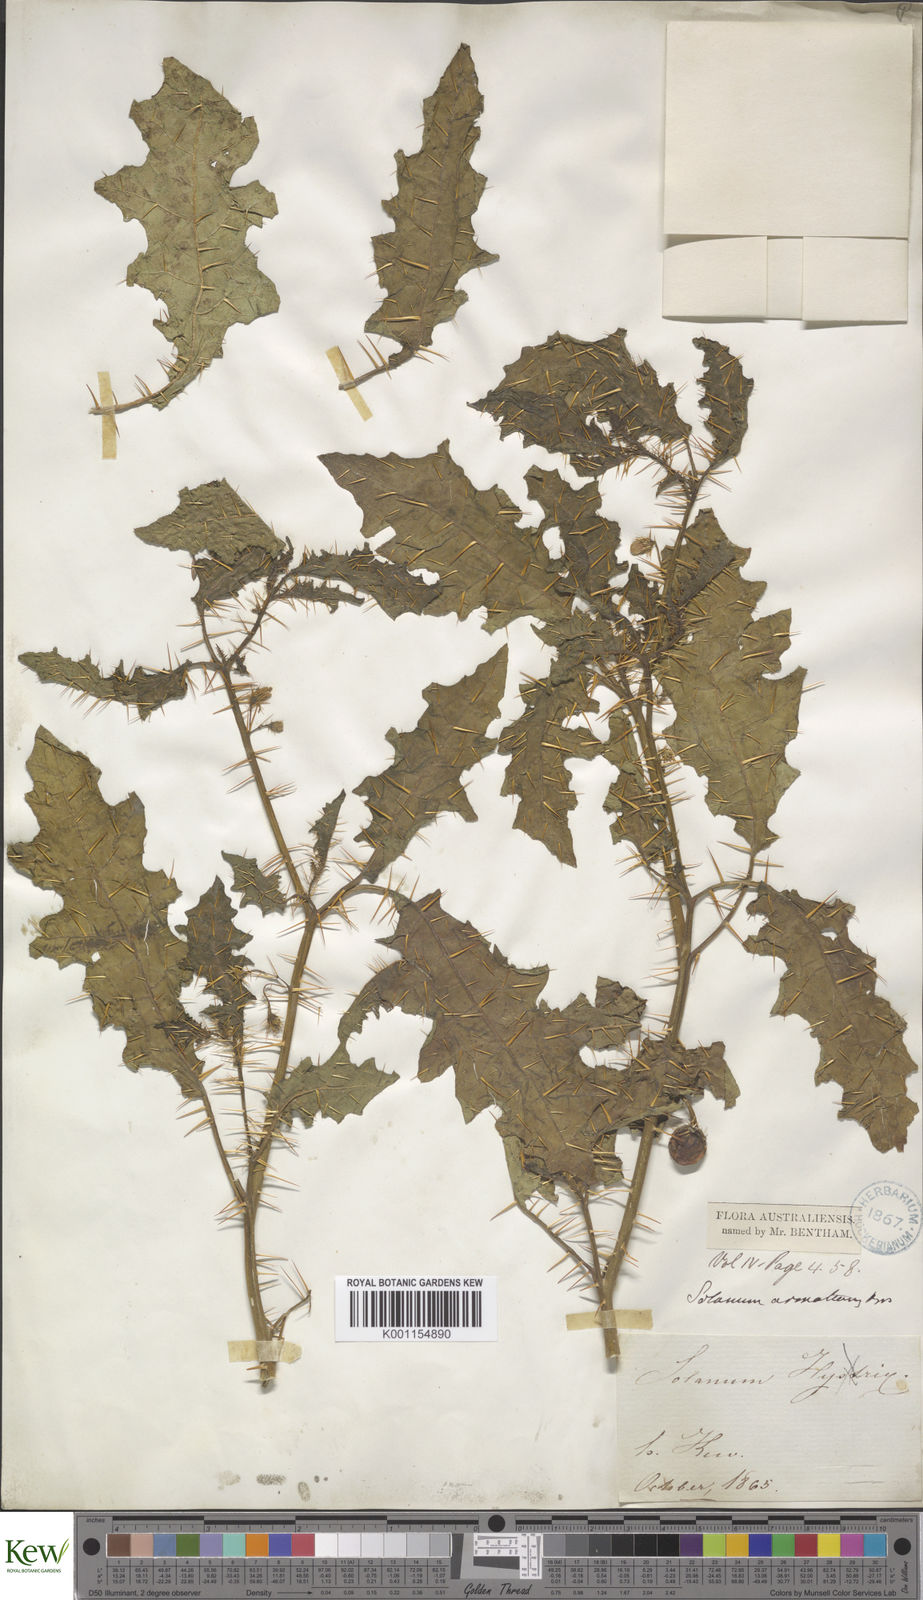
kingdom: Plantae
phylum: Tracheophyta
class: Magnoliopsida
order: Solanales
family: Solanaceae
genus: Solanum
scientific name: Solanum prinophyllum
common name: Forest nightshade
